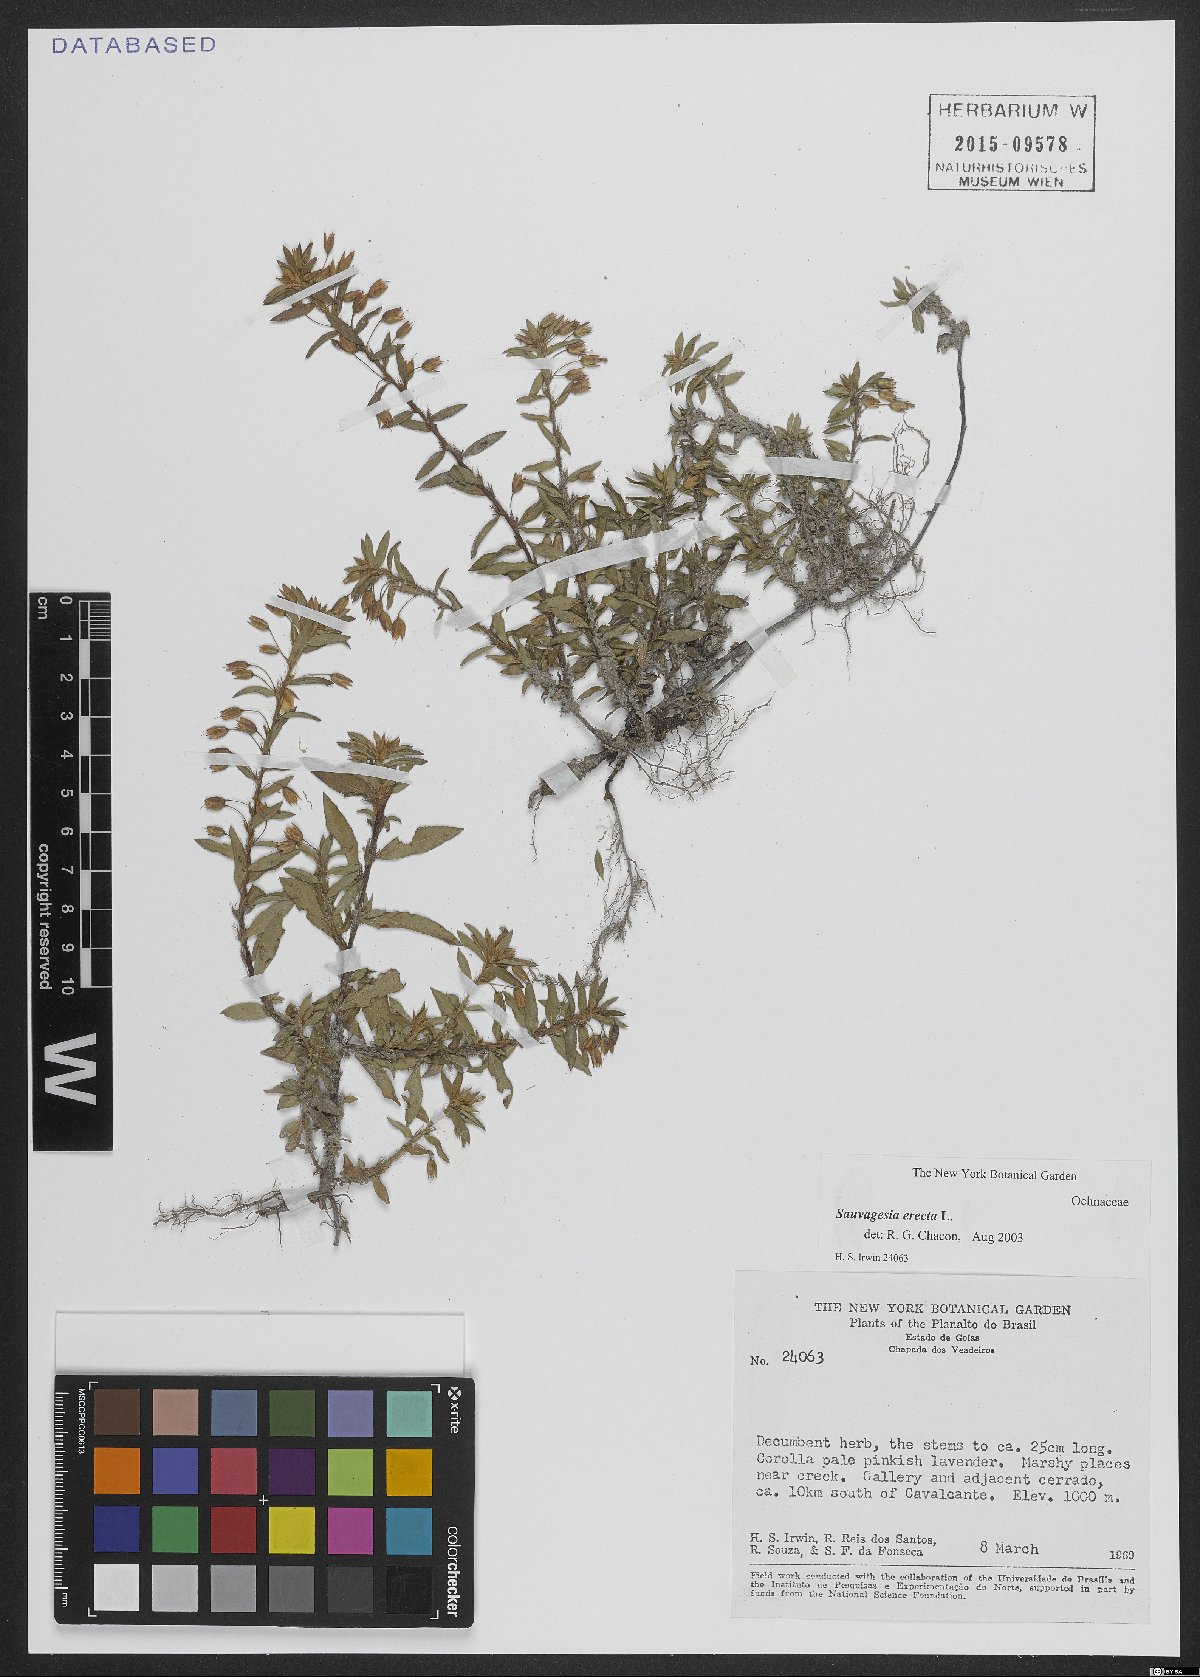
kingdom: Plantae
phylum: Tracheophyta
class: Magnoliopsida
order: Malpighiales
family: Ochnaceae
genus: Sauvagesia
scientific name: Sauvagesia erecta
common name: Creole tea
